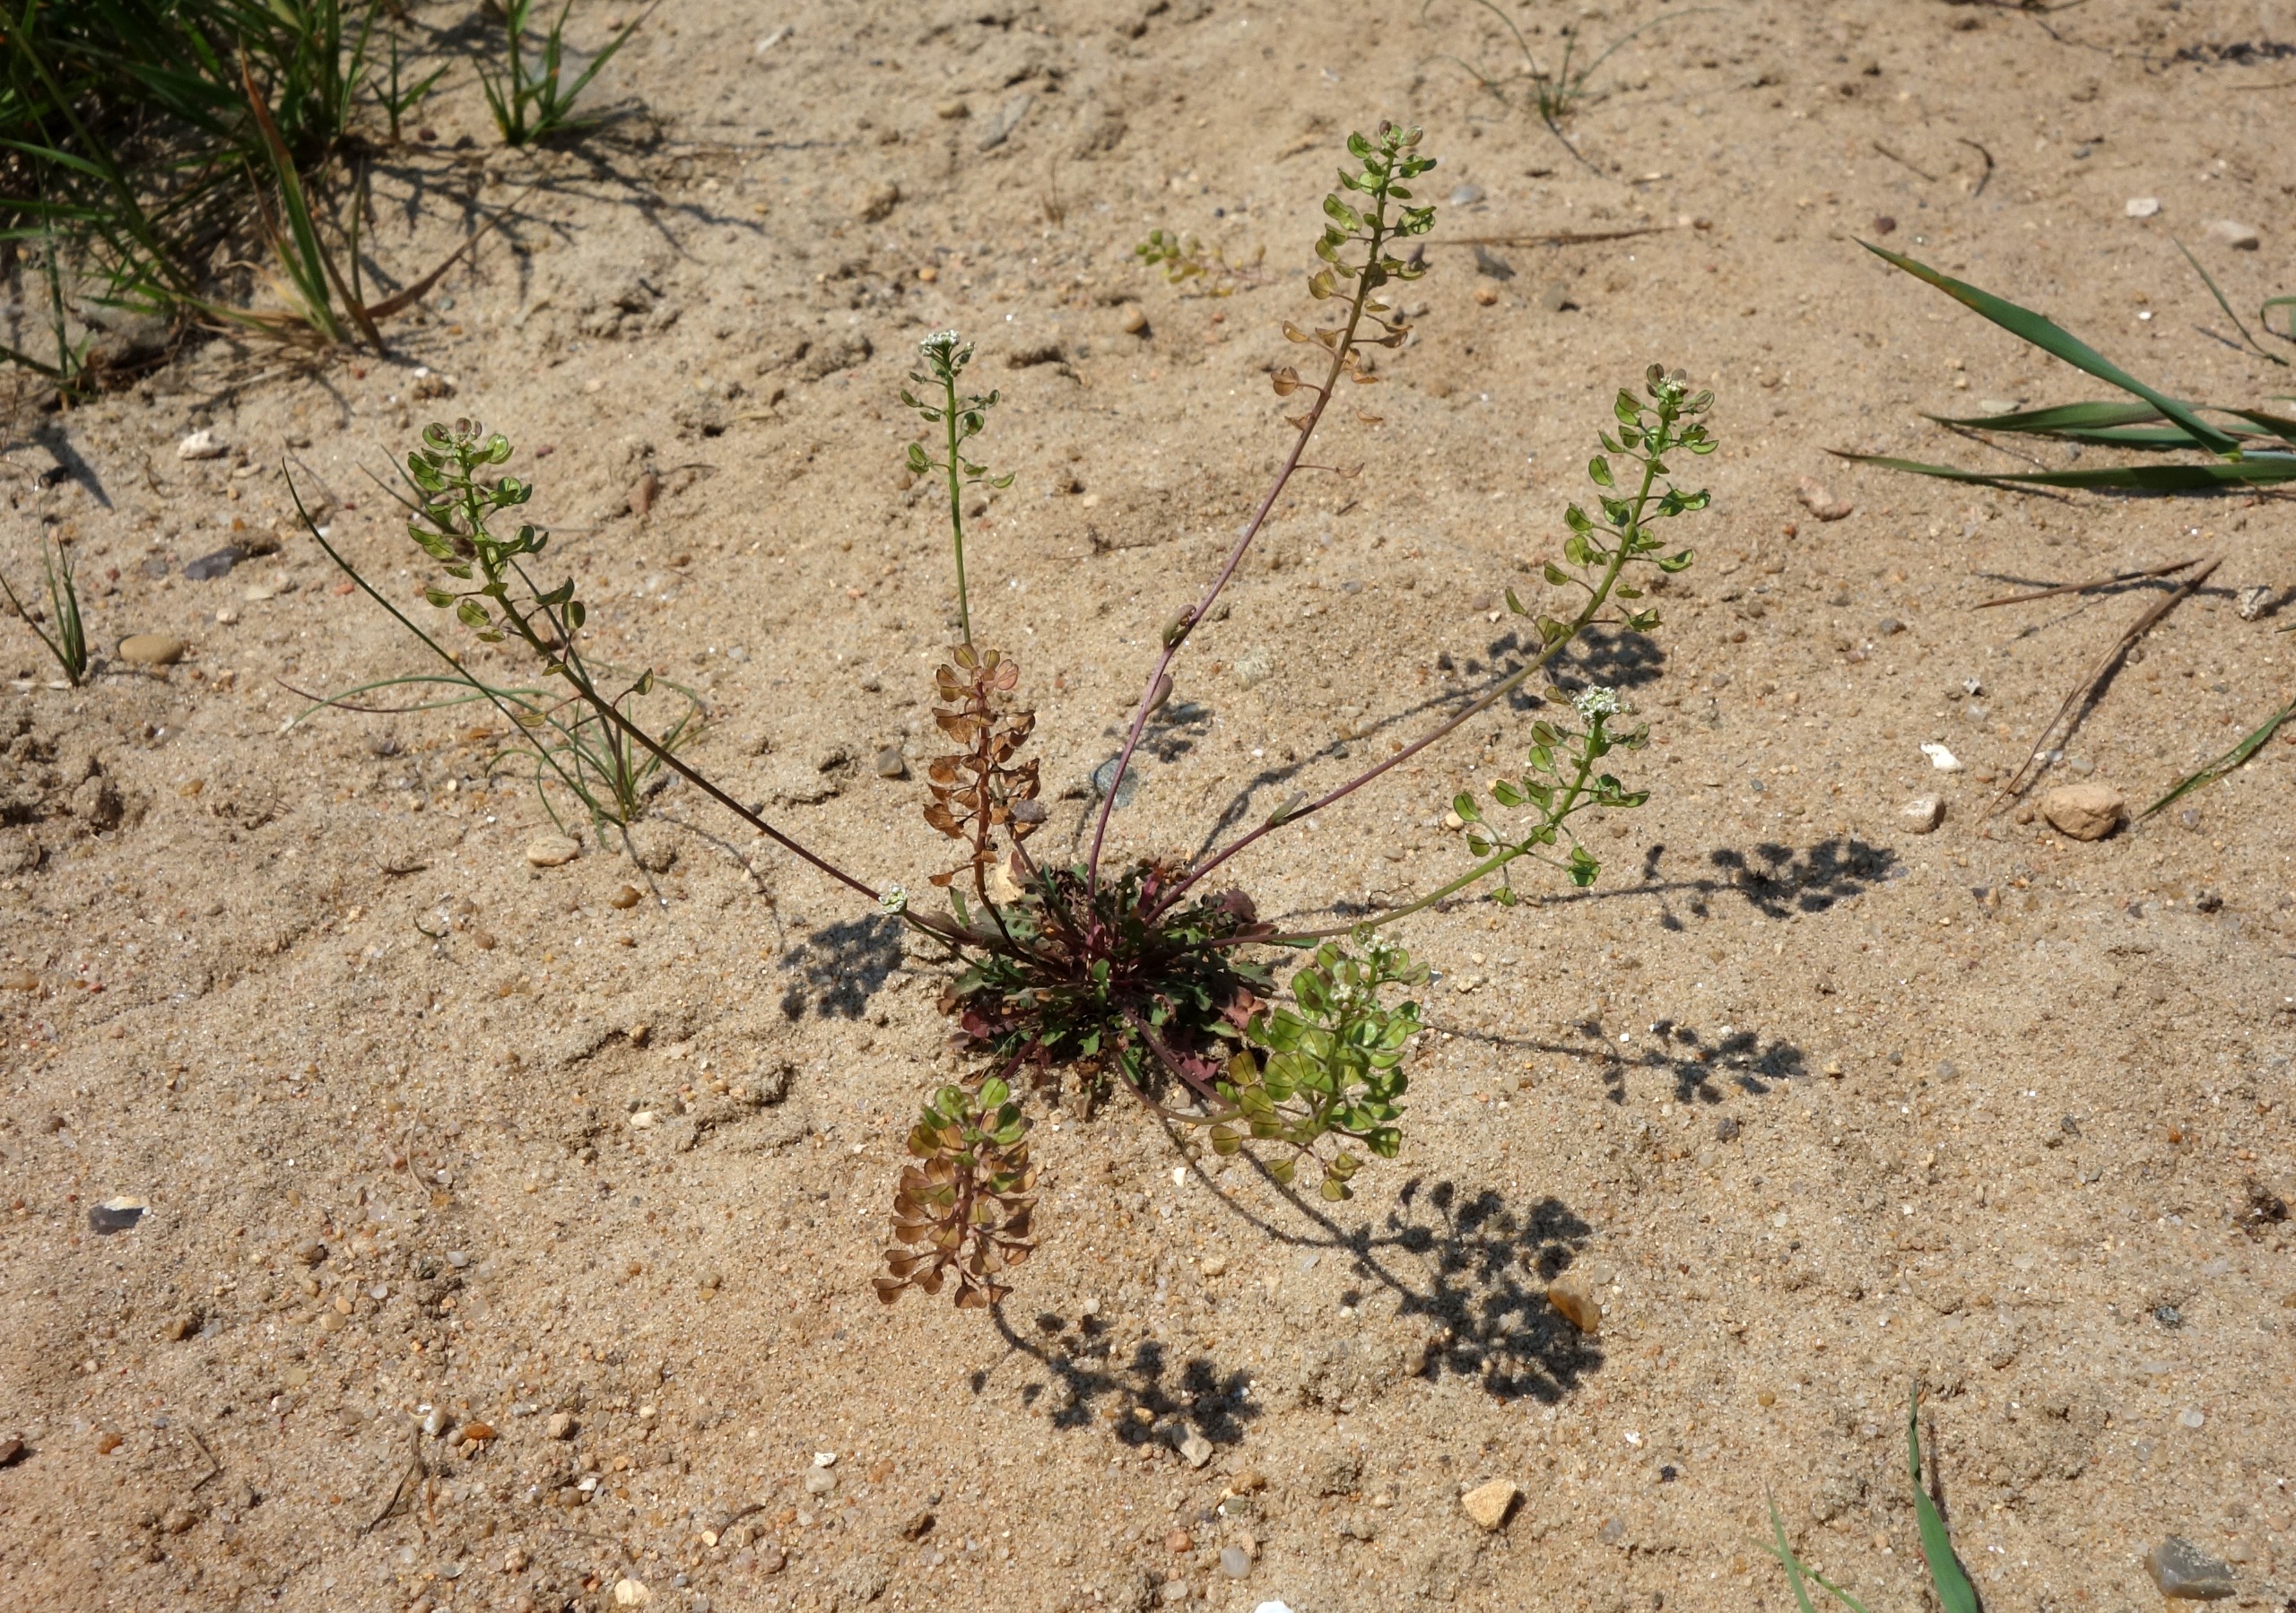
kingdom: Plantae
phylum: Tracheophyta
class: Magnoliopsida
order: Brassicales
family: Brassicaceae
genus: Teesdalia
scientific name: Teesdalia nudicaulis
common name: Flipkrave
